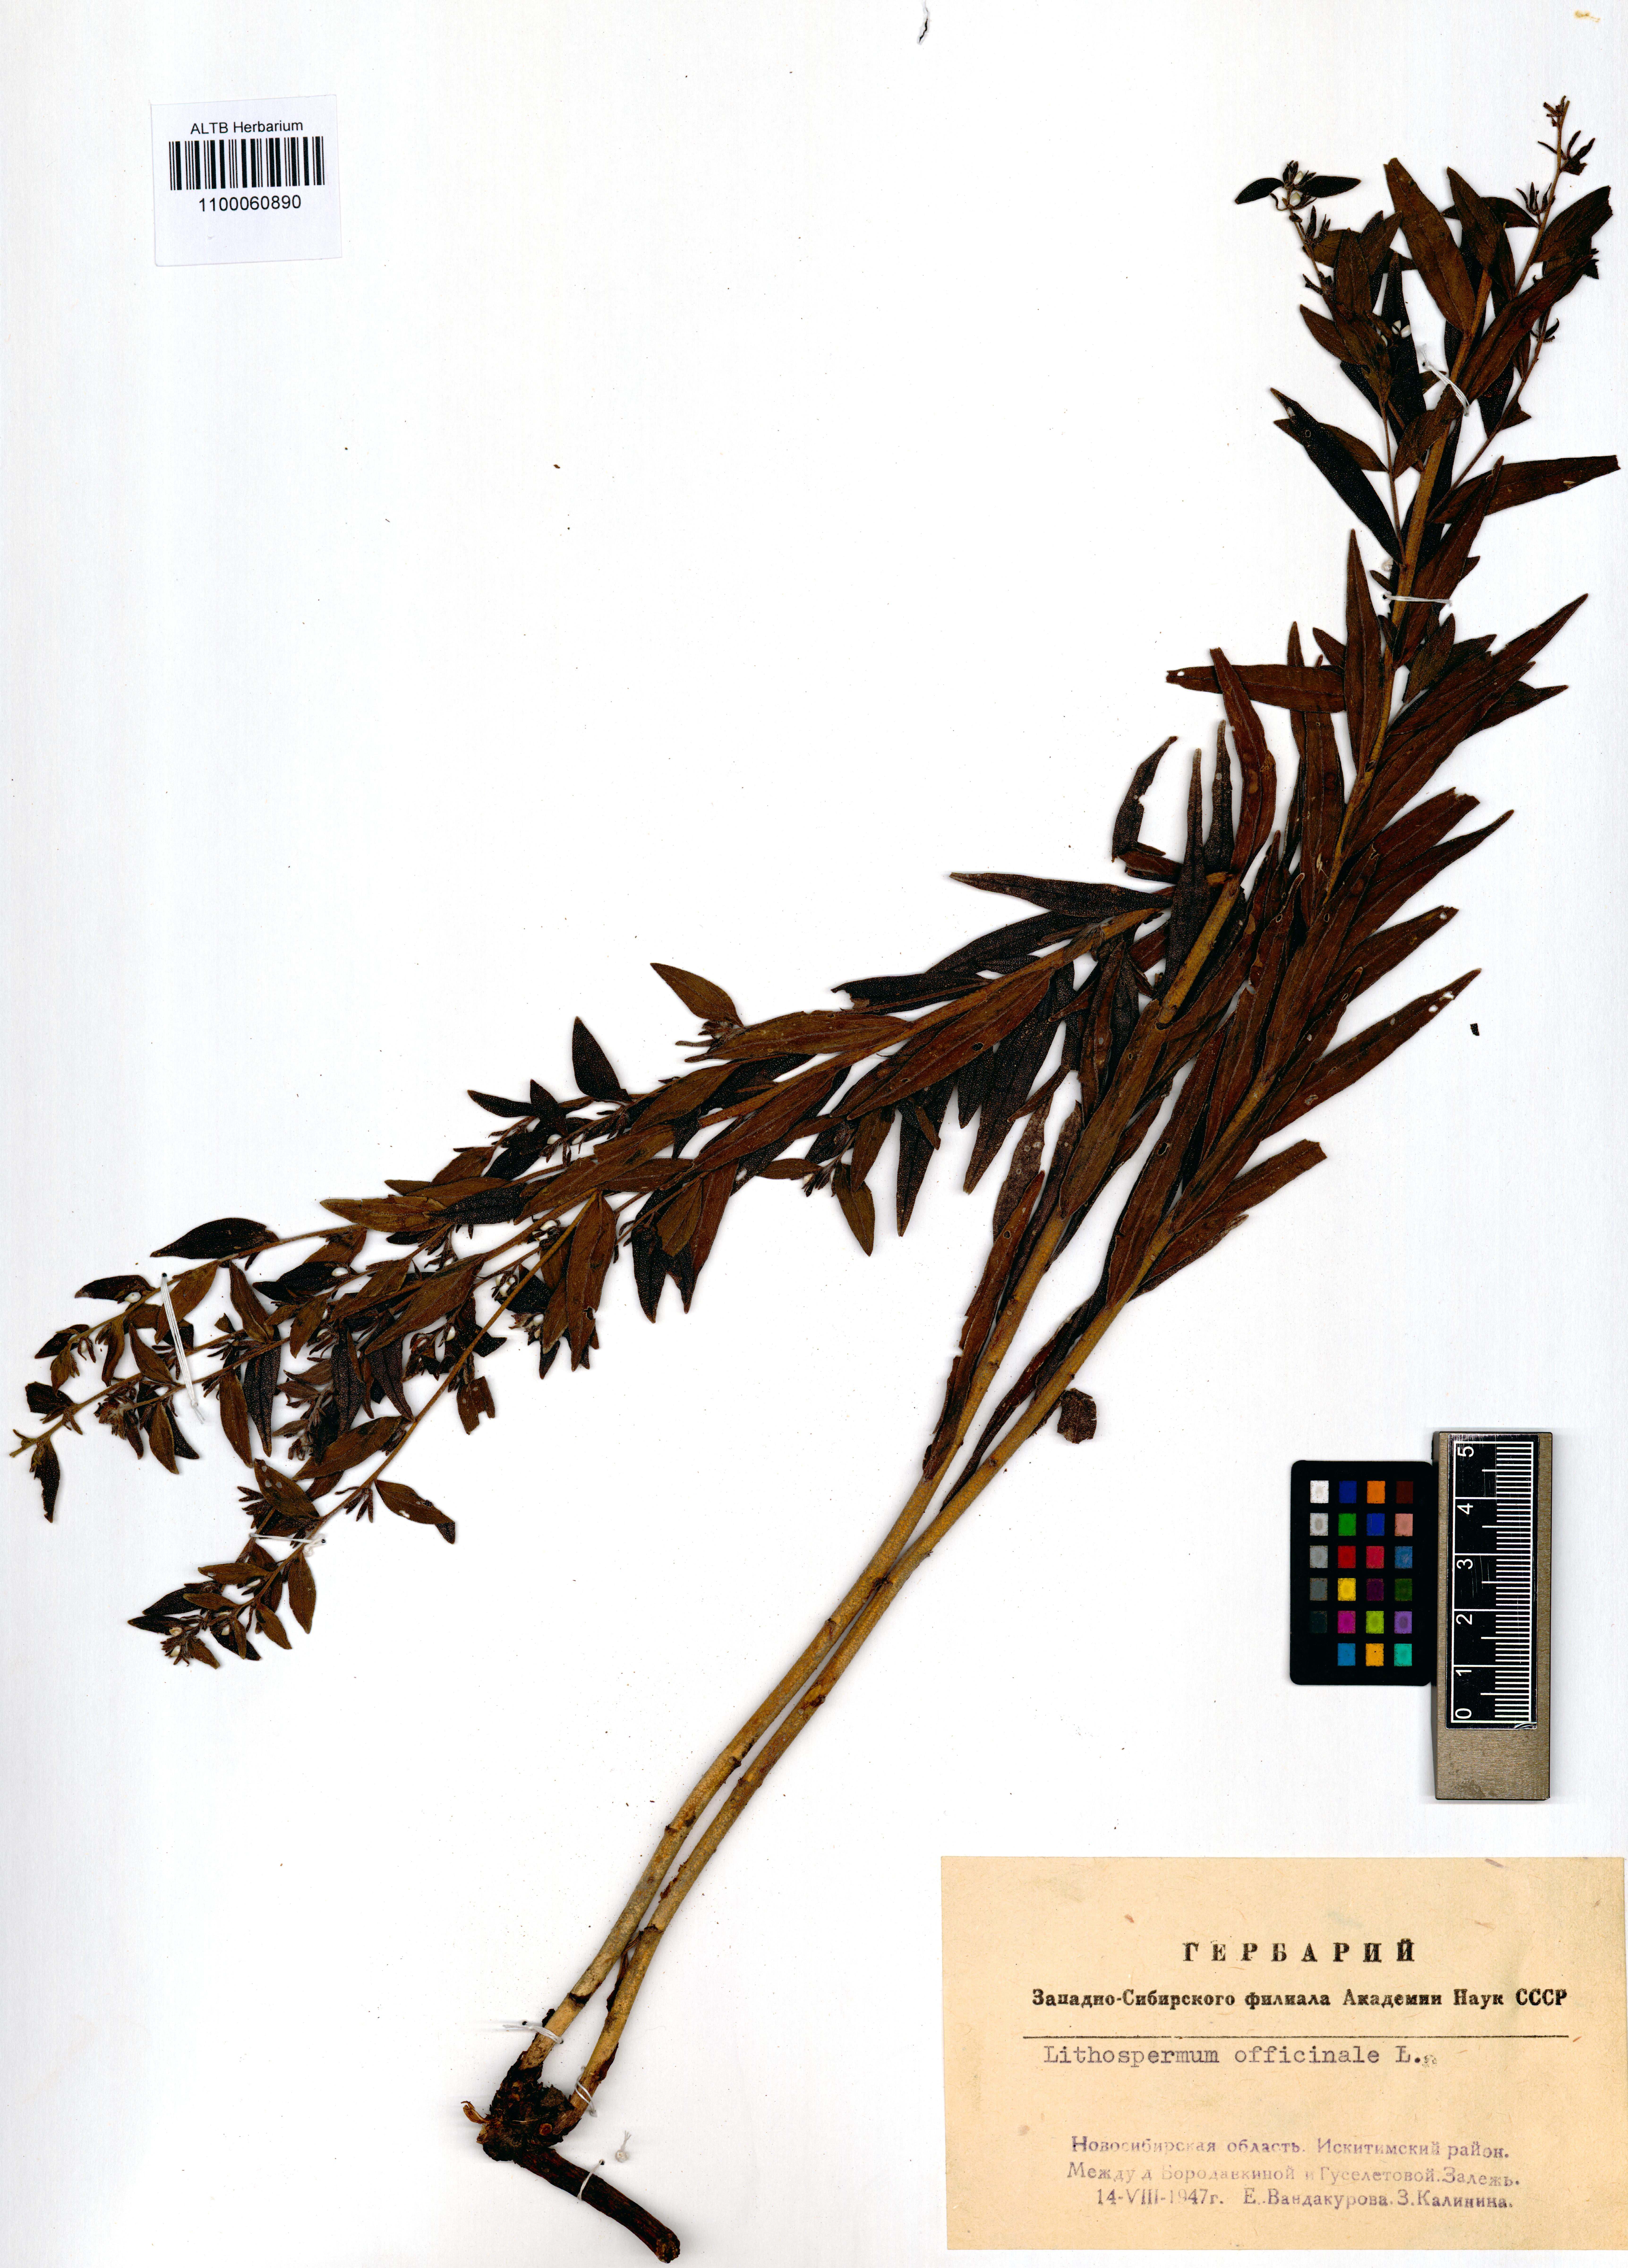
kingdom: Plantae
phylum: Tracheophyta
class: Magnoliopsida
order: Boraginales
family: Boraginaceae
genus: Lithospermum
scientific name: Lithospermum officinale
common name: Common gromwell
